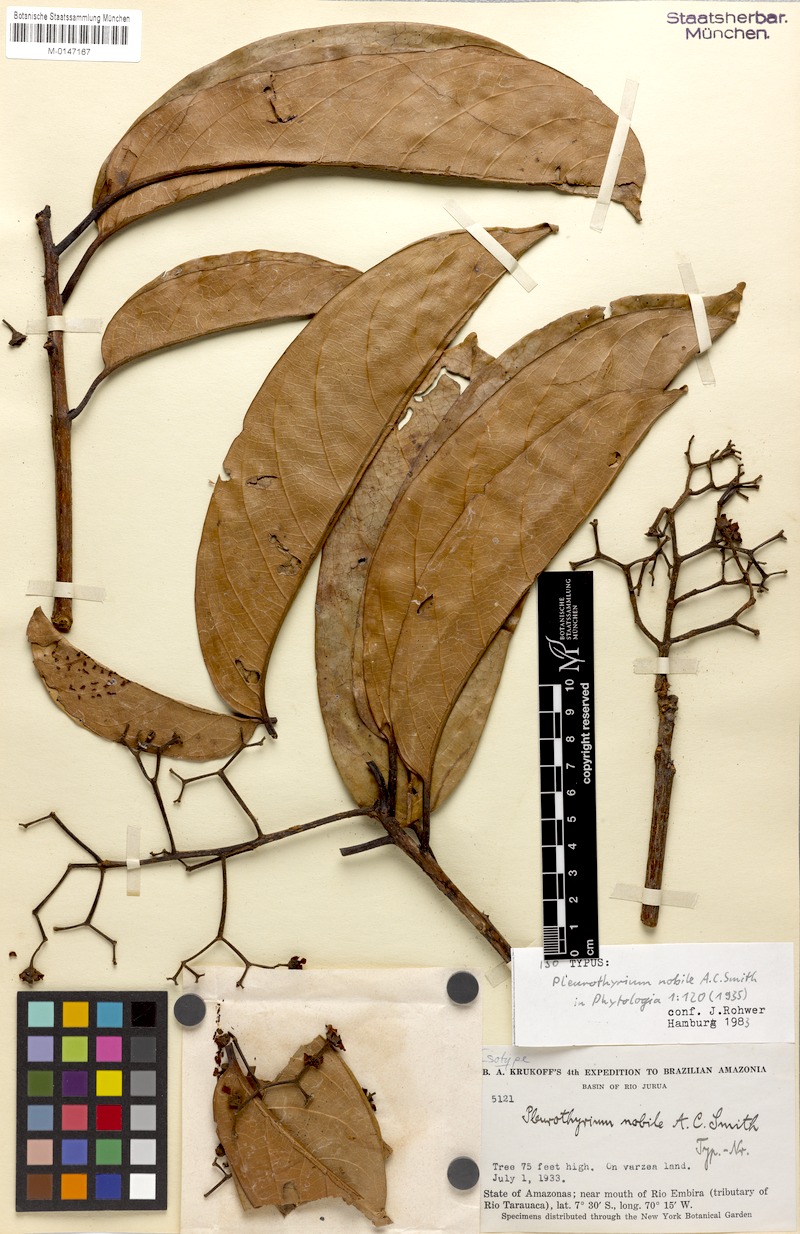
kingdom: Plantae
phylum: Tracheophyta
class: Magnoliopsida
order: Laurales
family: Lauraceae
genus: Ocotea
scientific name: Ocotea nobilis
